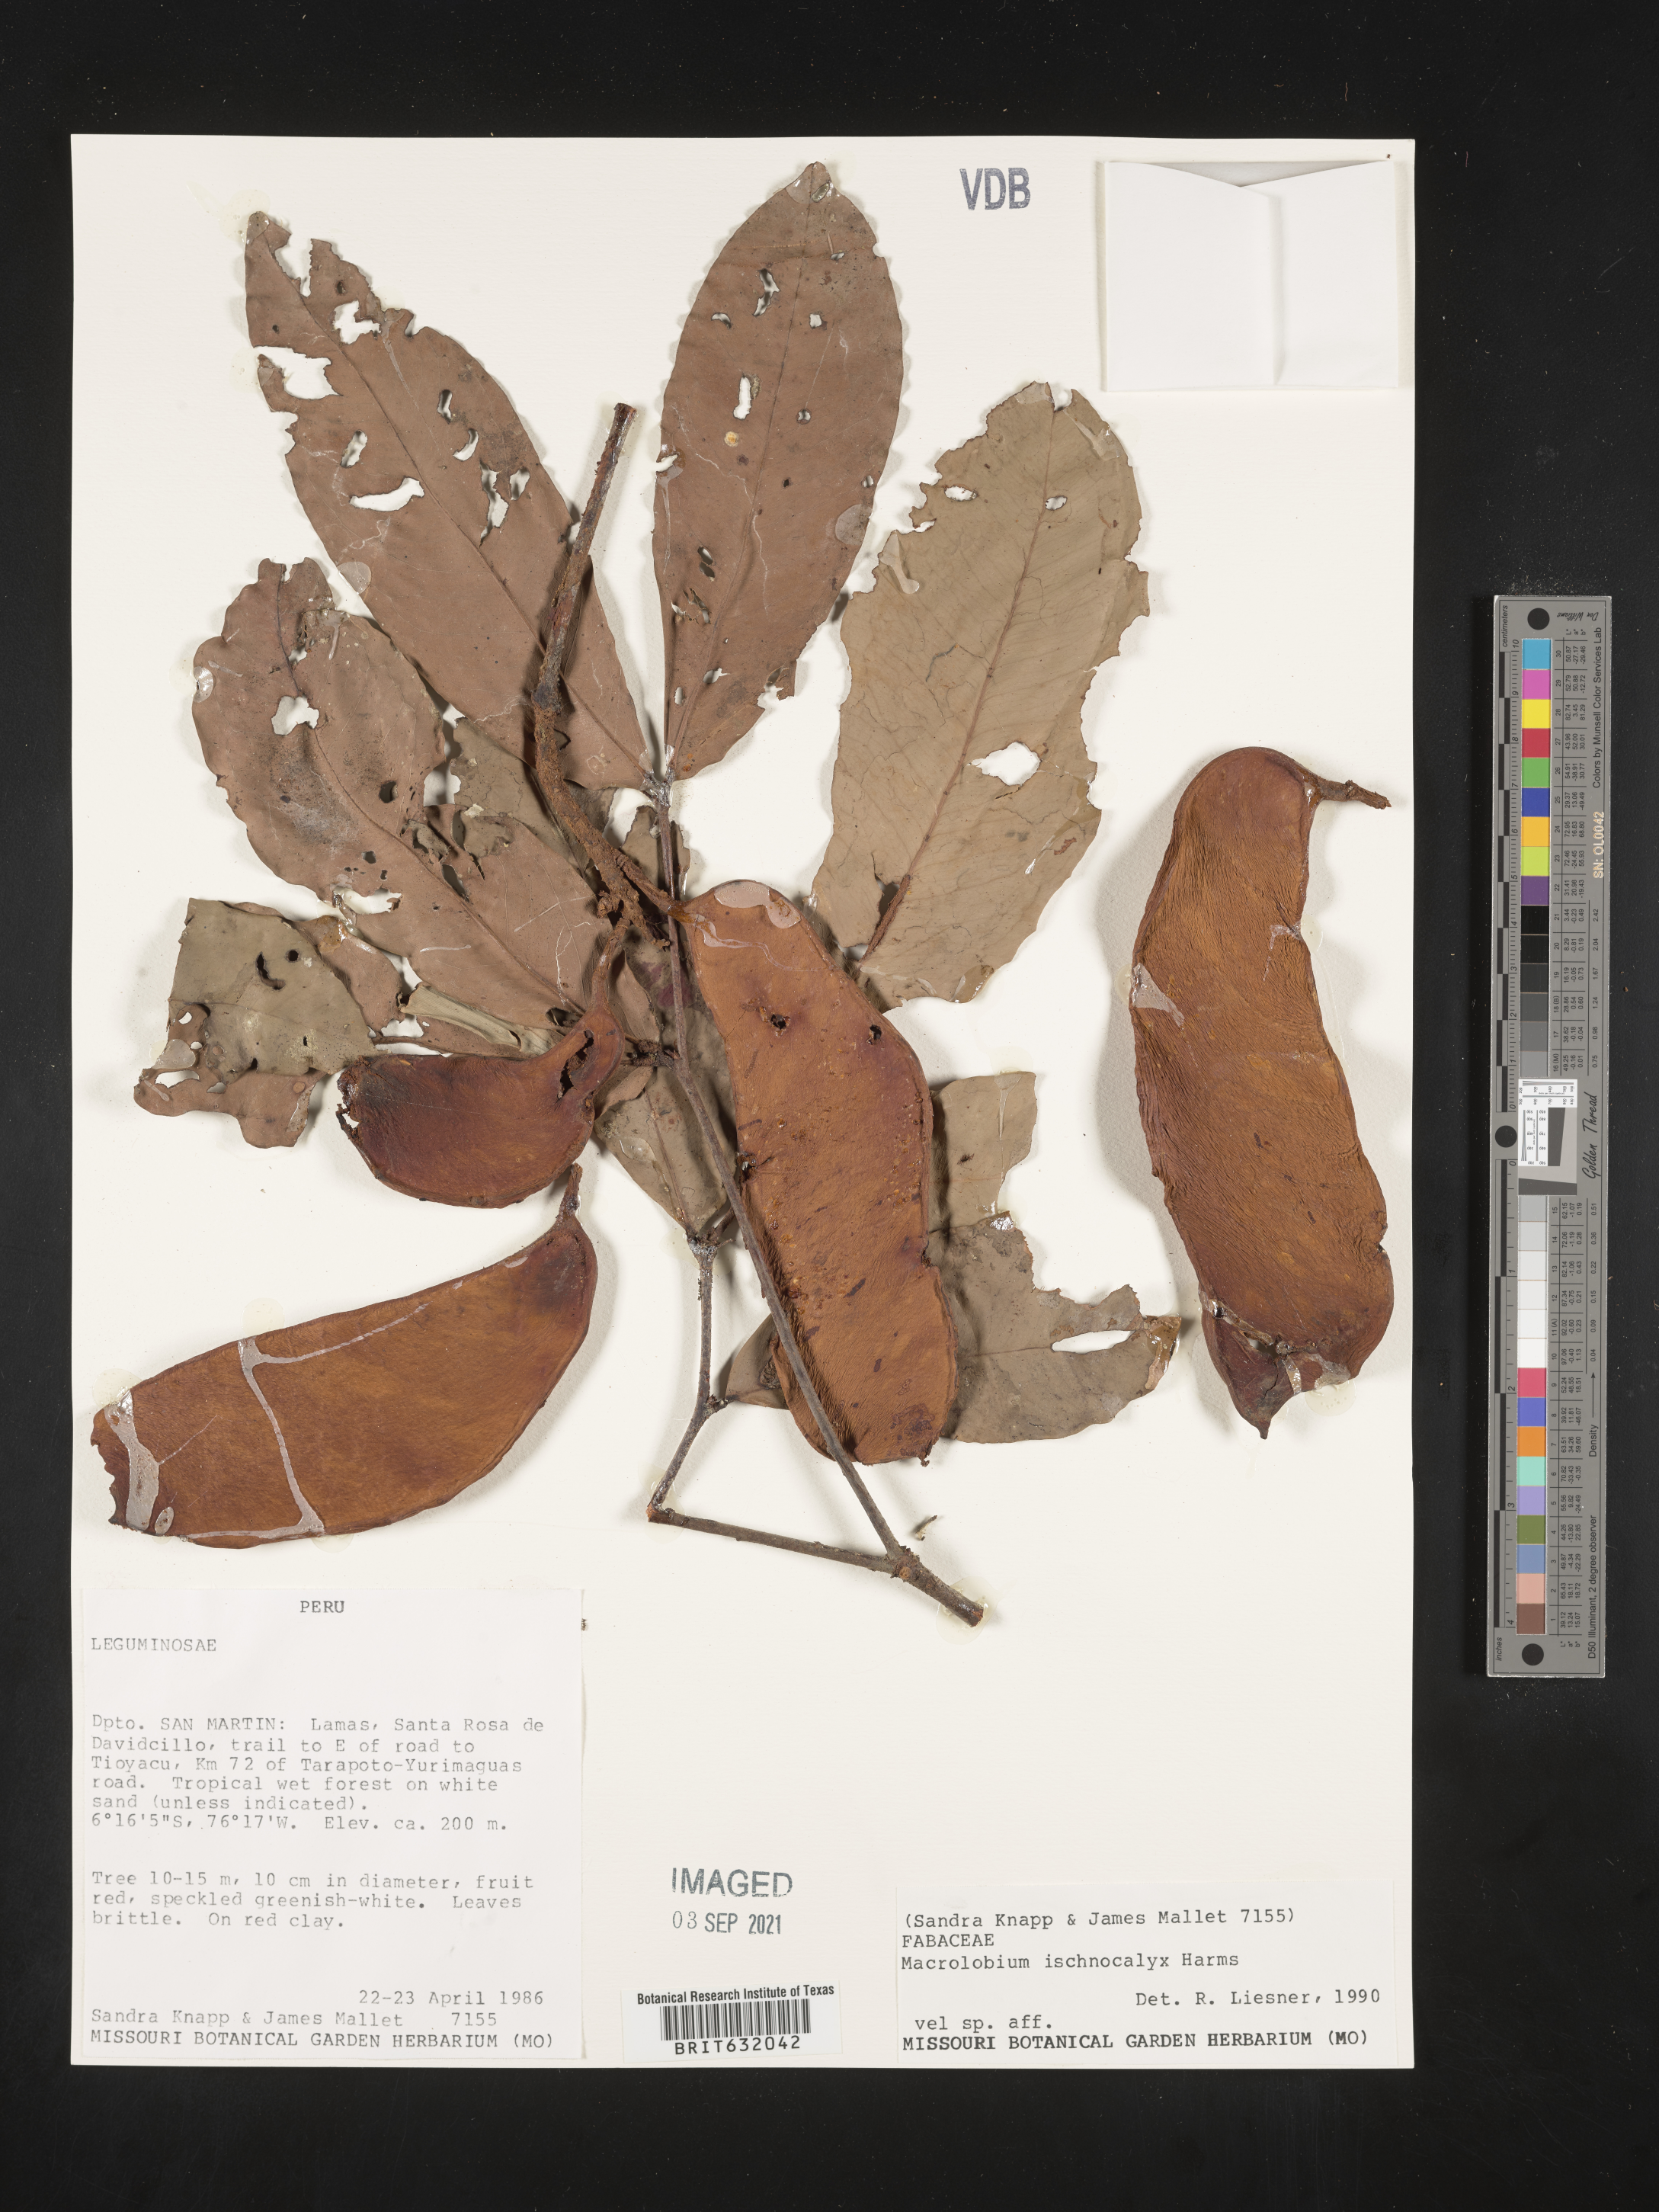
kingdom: Plantae
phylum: Tracheophyta
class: Magnoliopsida
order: Fabales
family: Fabaceae
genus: Macrolobium
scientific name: Macrolobium
